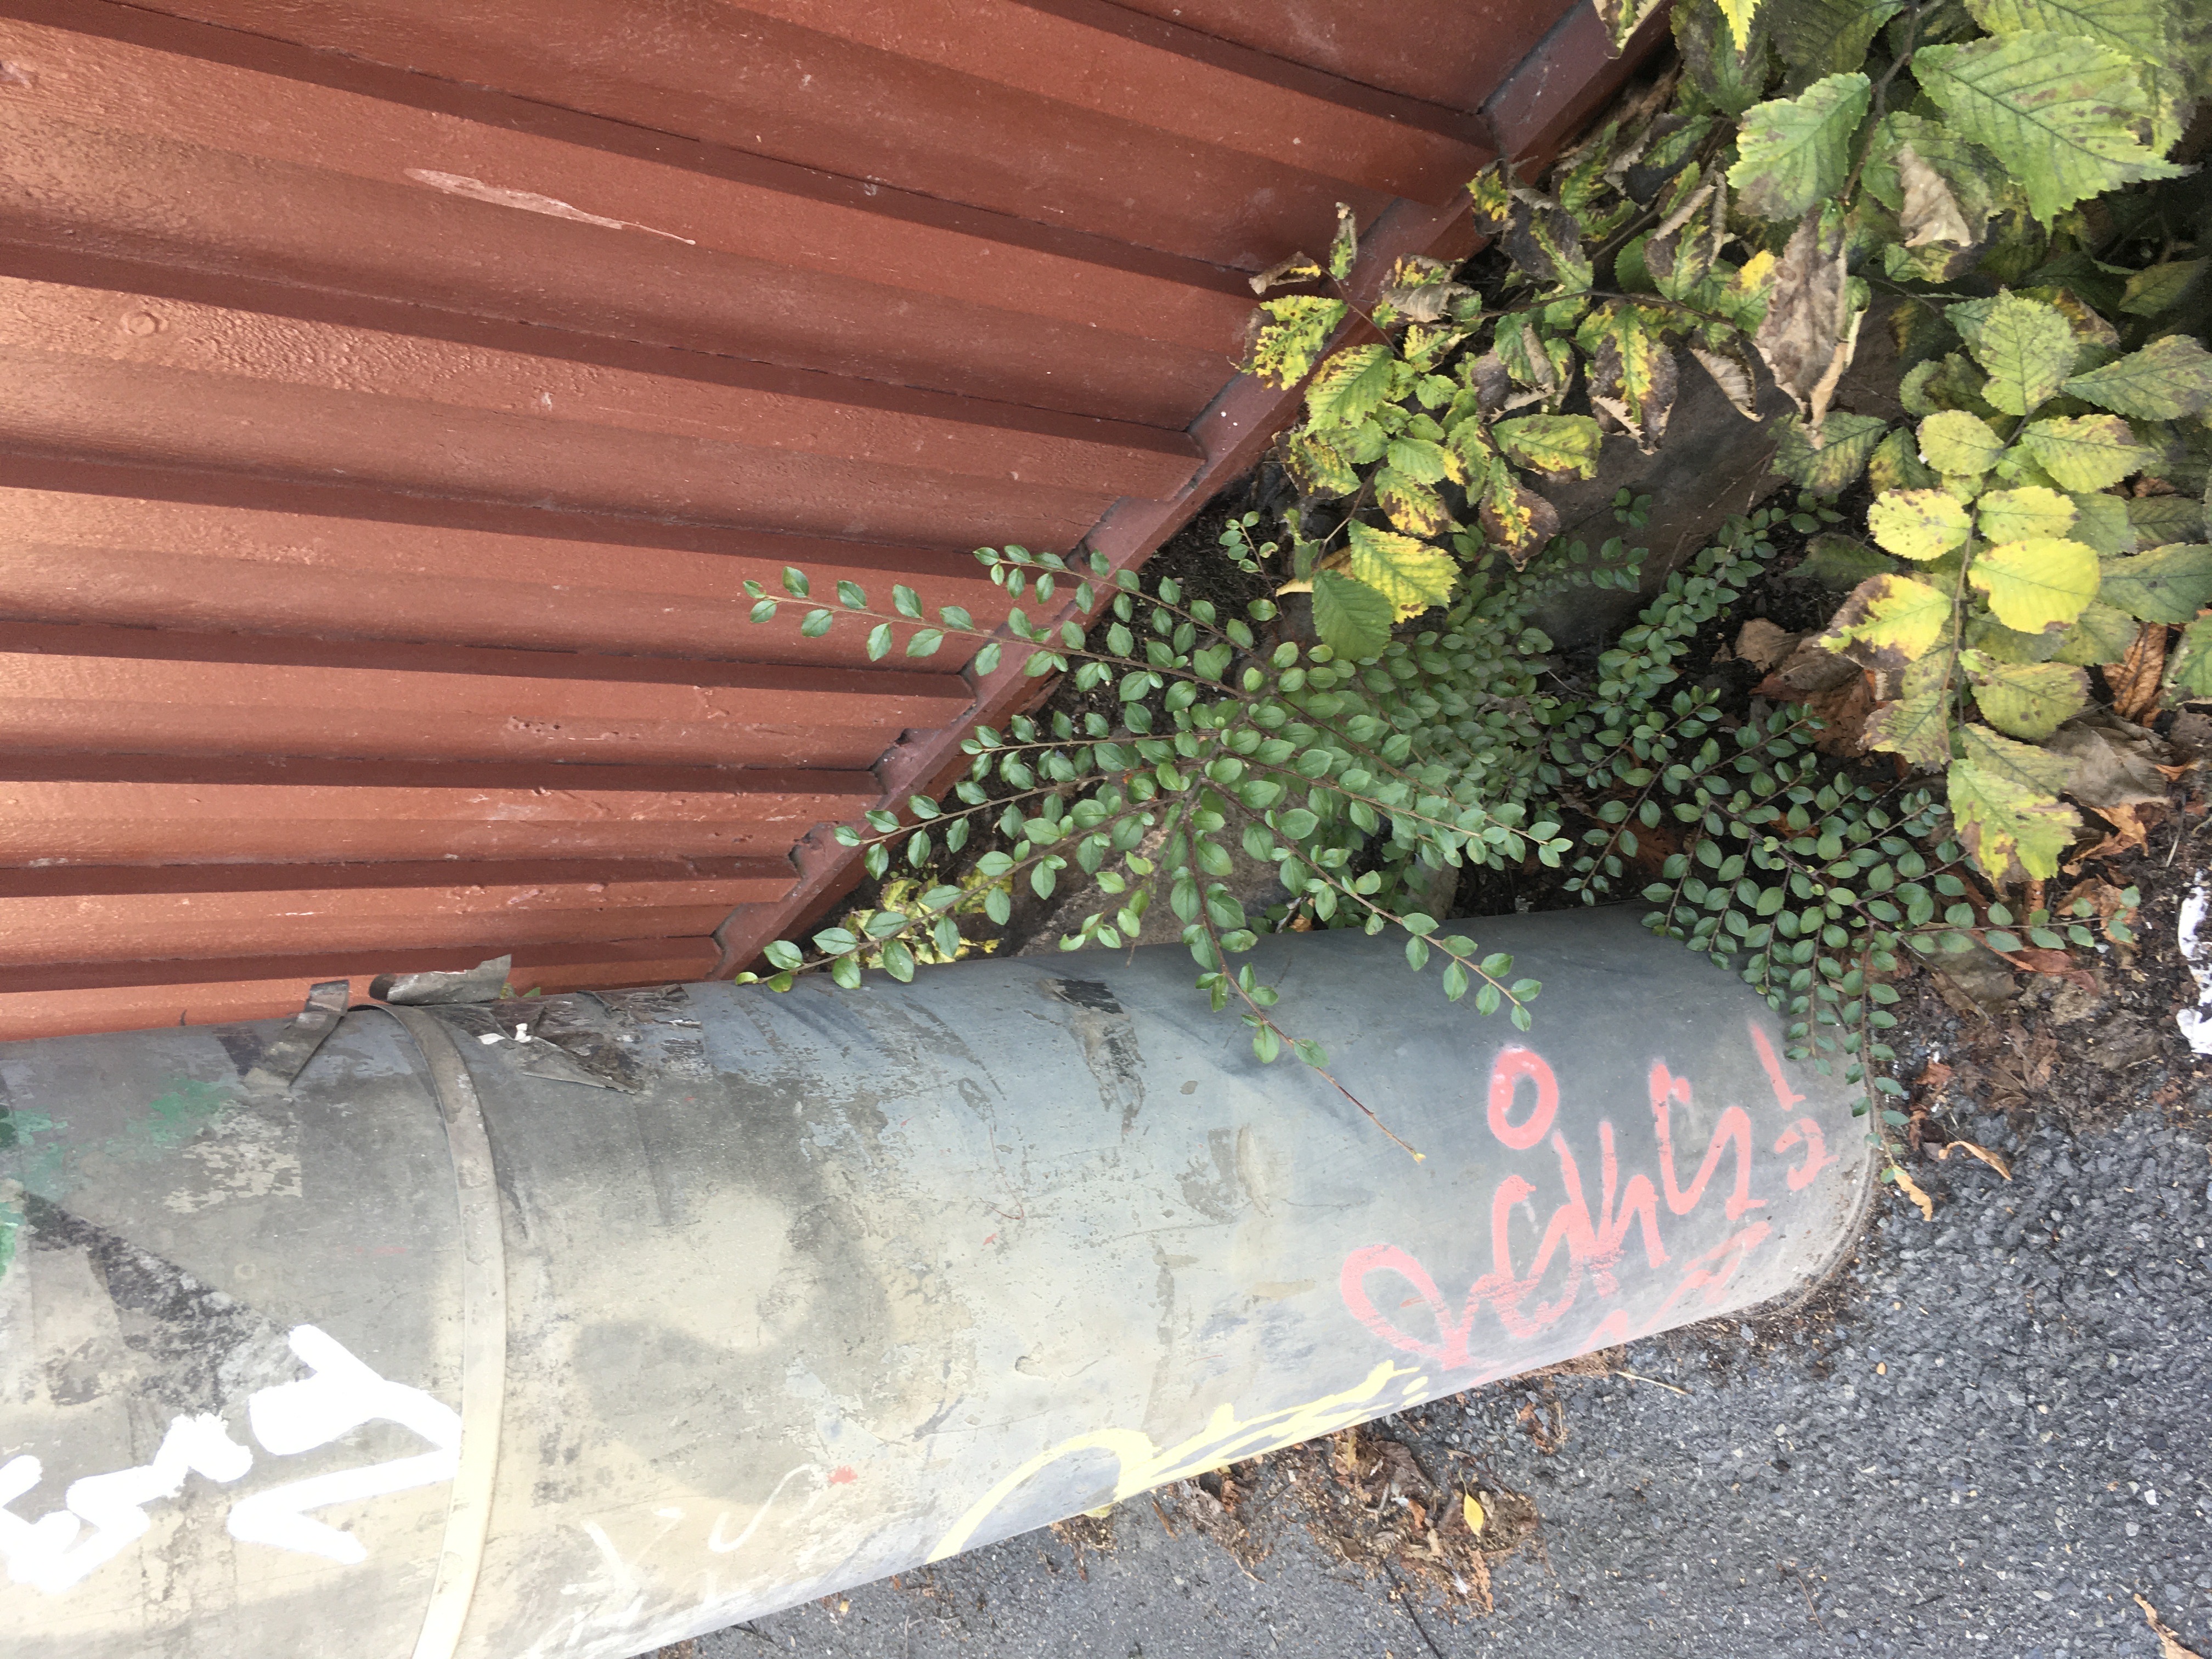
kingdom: Plantae
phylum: Tracheophyta
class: Magnoliopsida
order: Rosales
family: Rosaceae
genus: Cotoneaster
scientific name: Cotoneaster divaricatus
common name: sprikemispel
